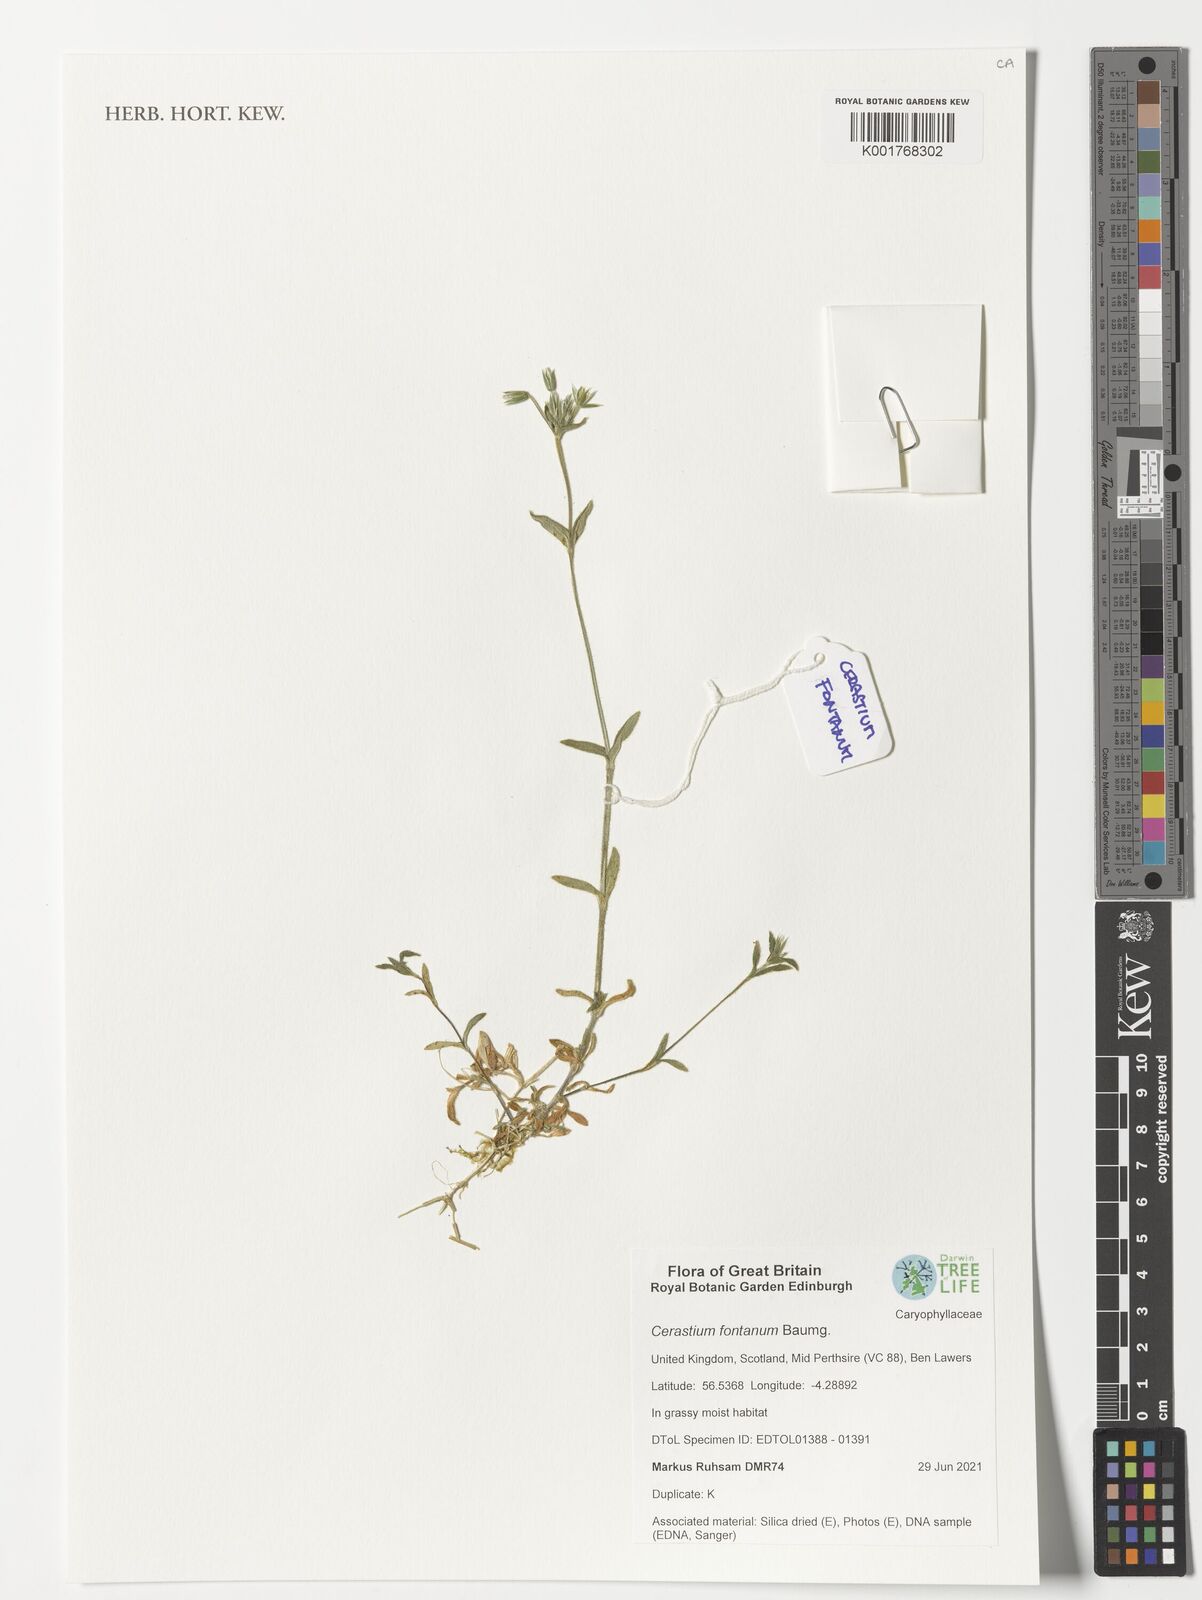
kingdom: Plantae
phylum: Tracheophyta
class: Magnoliopsida
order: Caryophyllales
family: Caryophyllaceae
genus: Cerastium
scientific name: Cerastium fontanum
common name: Common mouse-ear
